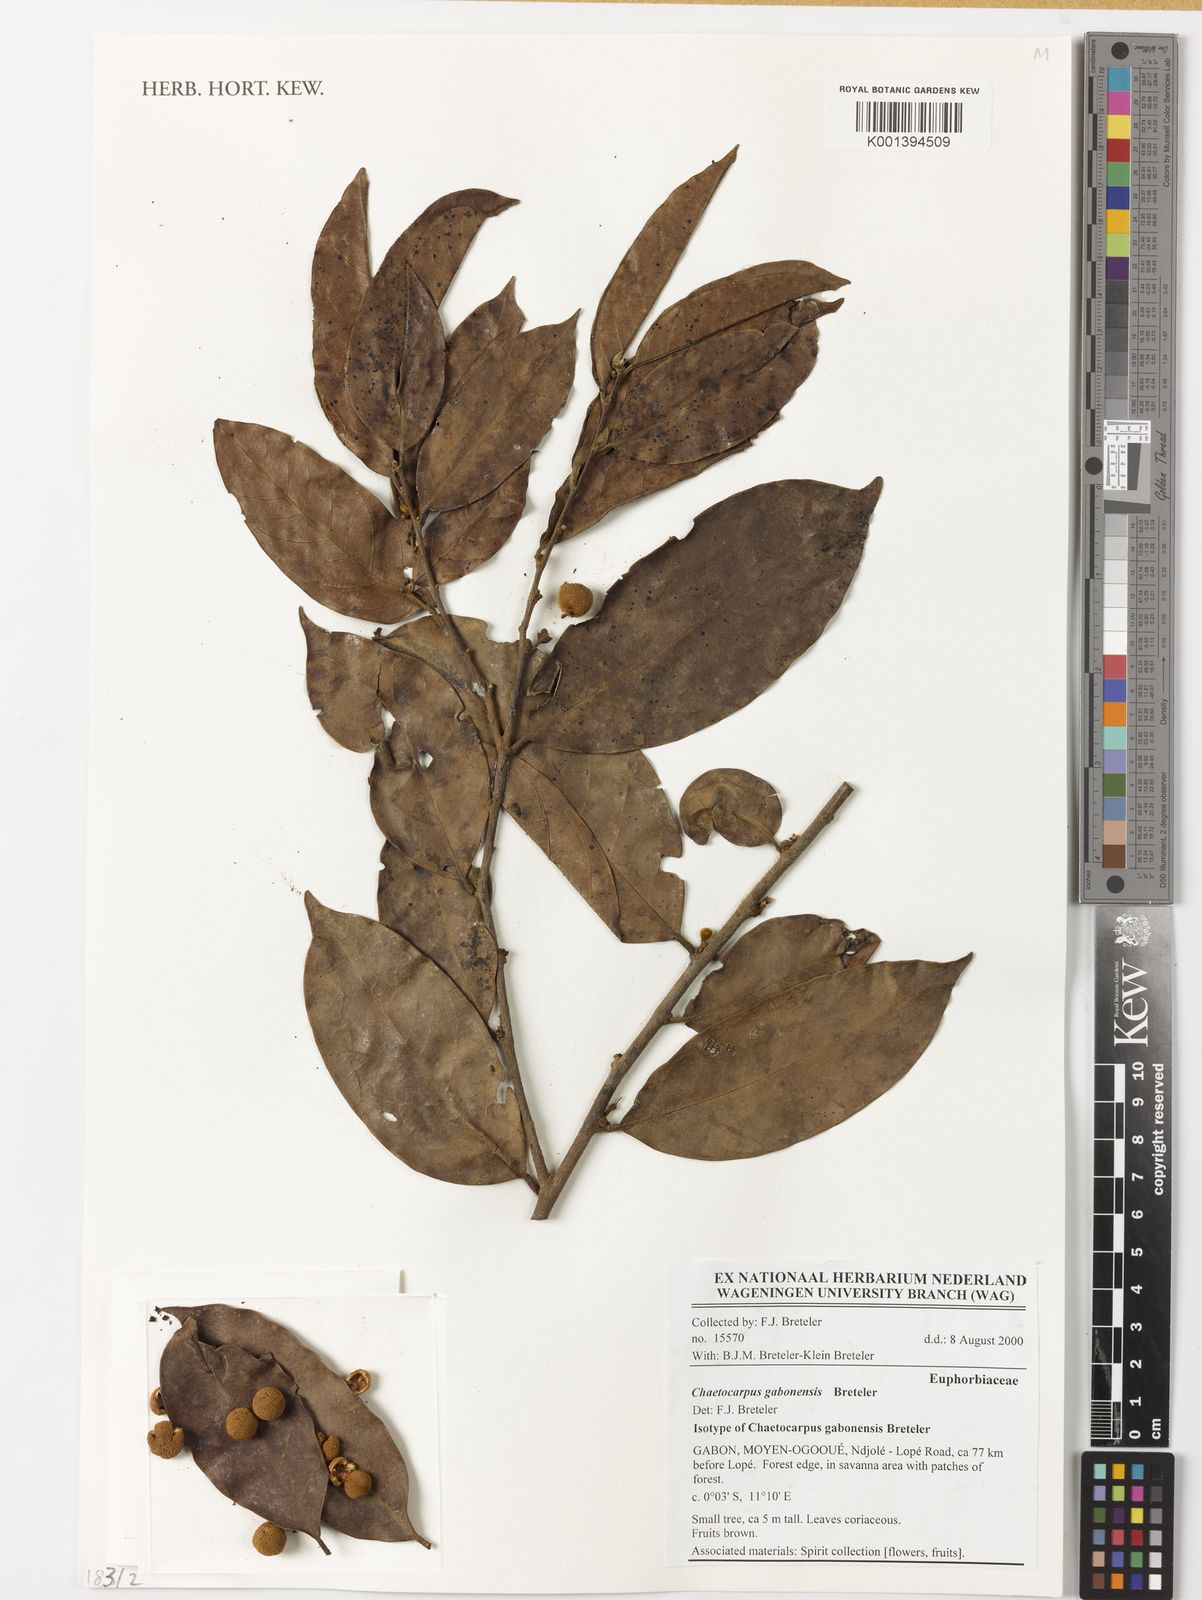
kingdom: Plantae
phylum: Tracheophyta
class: Magnoliopsida
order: Malpighiales
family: Peraceae
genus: Chaetocarpus
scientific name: Chaetocarpus gabonensis
